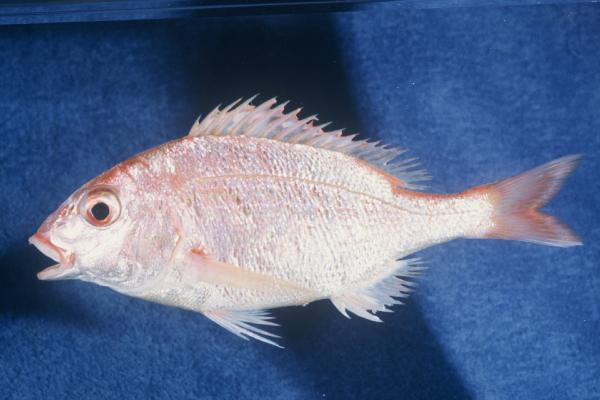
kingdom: Animalia
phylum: Chordata
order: Perciformes
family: Sparidae
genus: Pterogymnus
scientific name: Pterogymnus laniarius
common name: Panga
